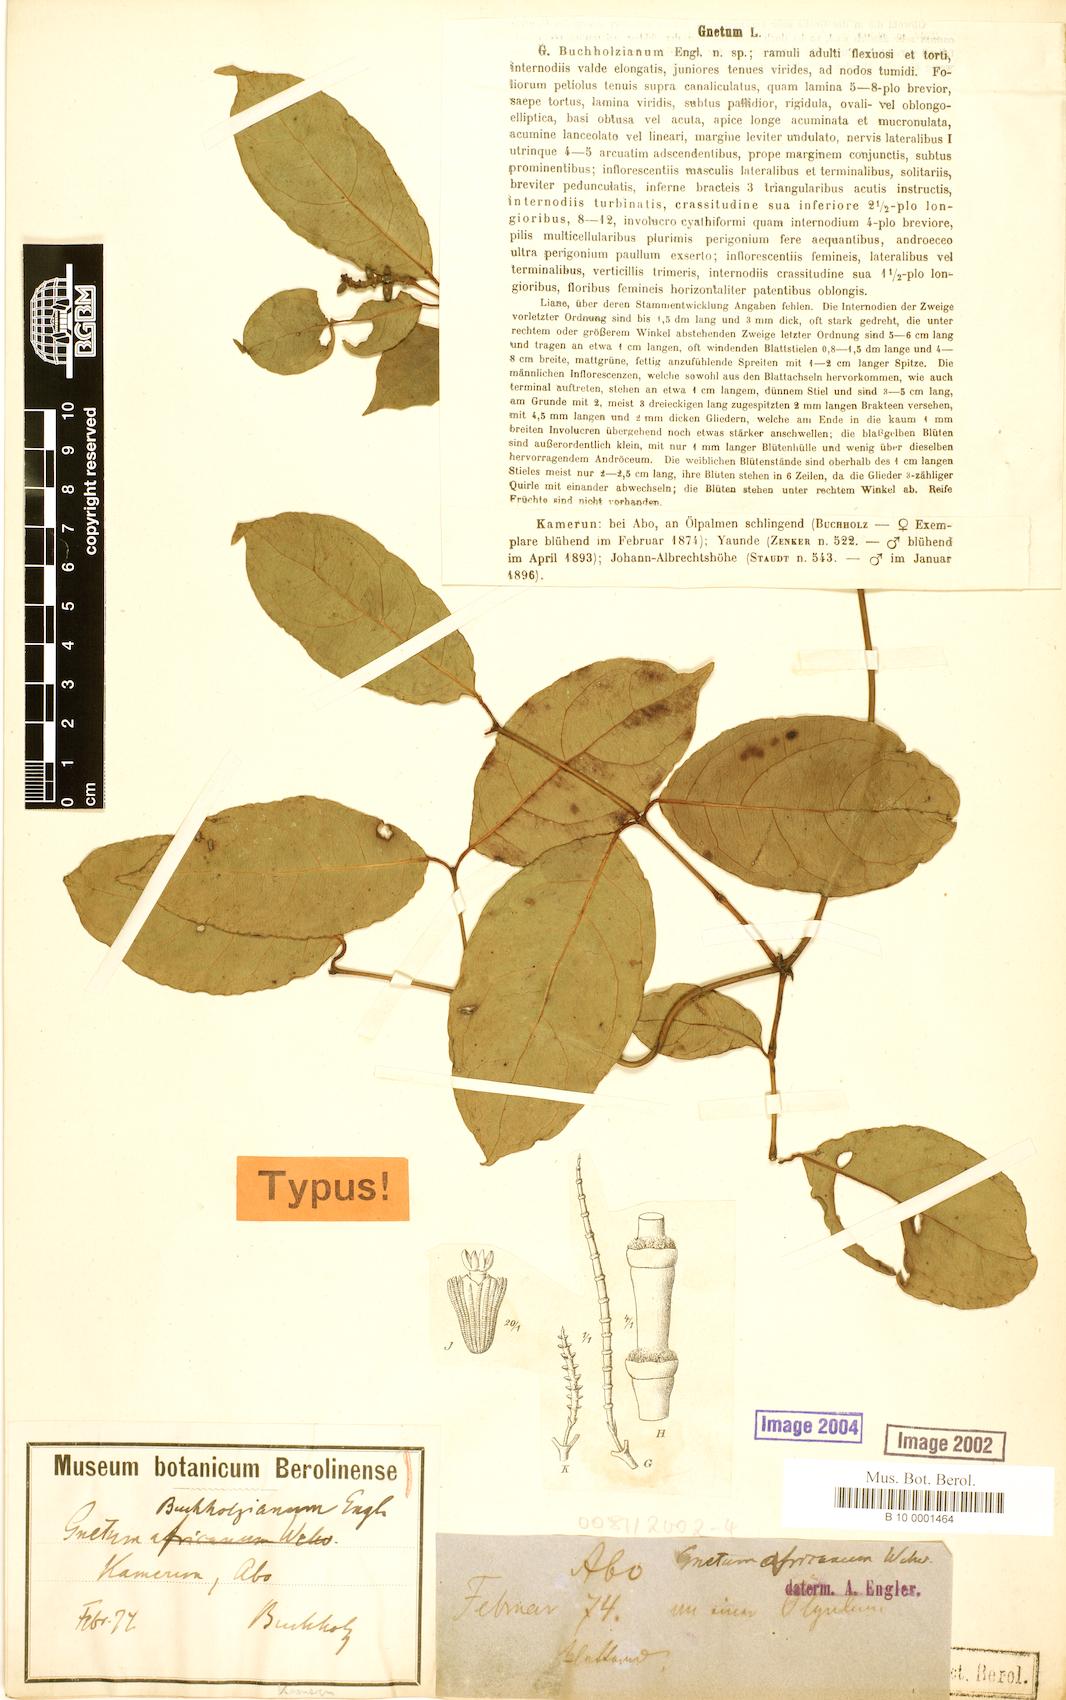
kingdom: Plantae
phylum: Tracheophyta
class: Gnetopsida
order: Gnetales
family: Gnetaceae
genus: Gnetum
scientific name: Gnetum buchholzianum
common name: Eru
